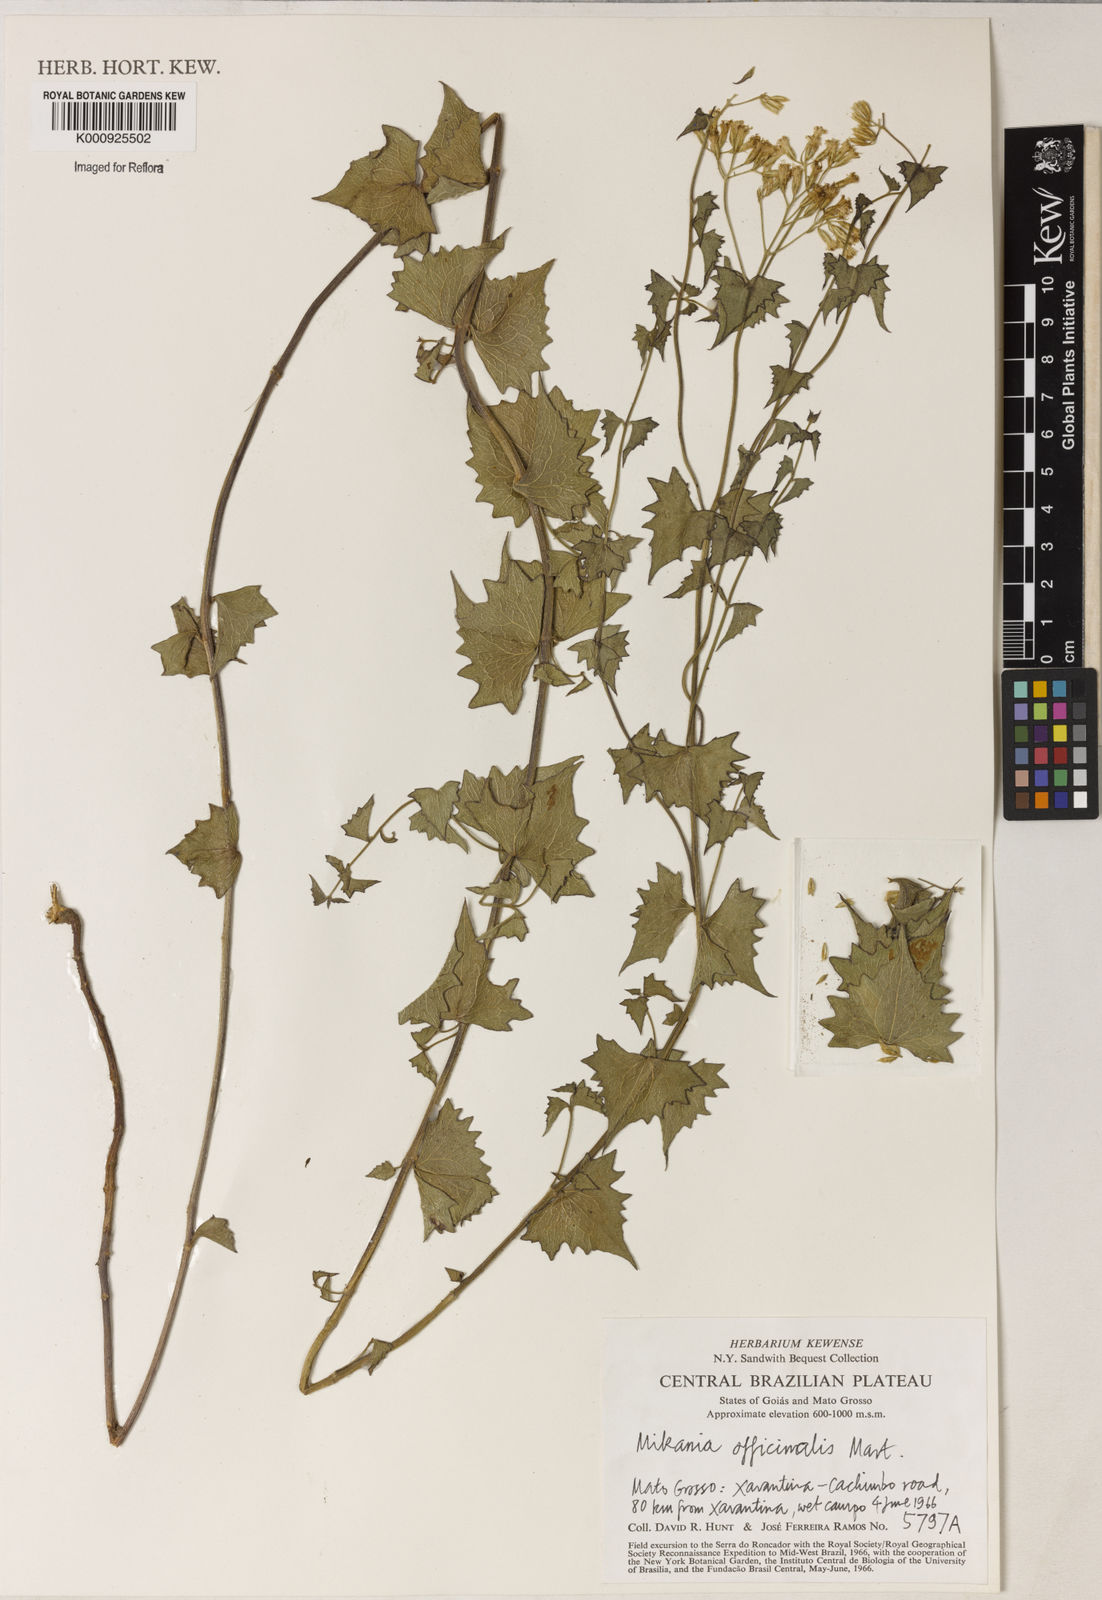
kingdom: Plantae
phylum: Tracheophyta
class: Magnoliopsida
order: Asterales
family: Asteraceae
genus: Mikania
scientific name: Mikania officinalis
